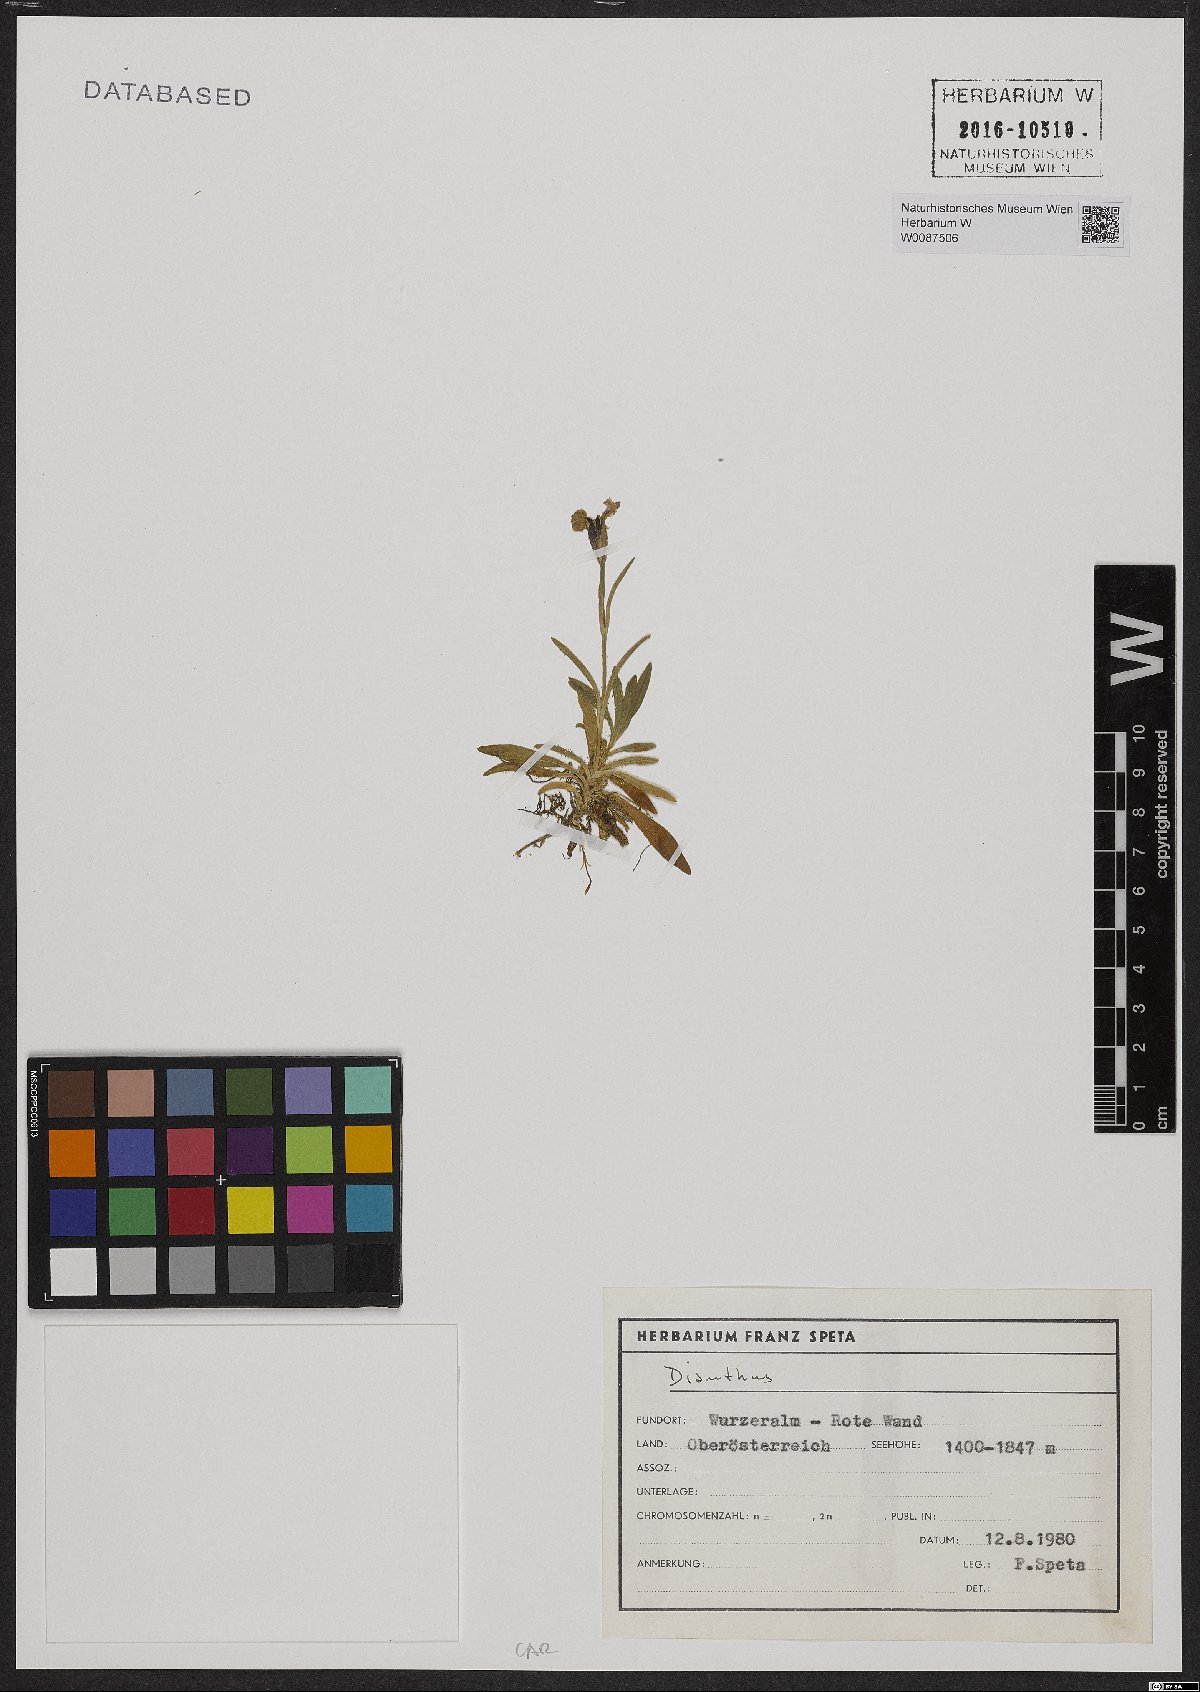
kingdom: Plantae
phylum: Tracheophyta
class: Magnoliopsida
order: Caryophyllales
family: Caryophyllaceae
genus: Dianthus
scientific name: Dianthus alpinus
